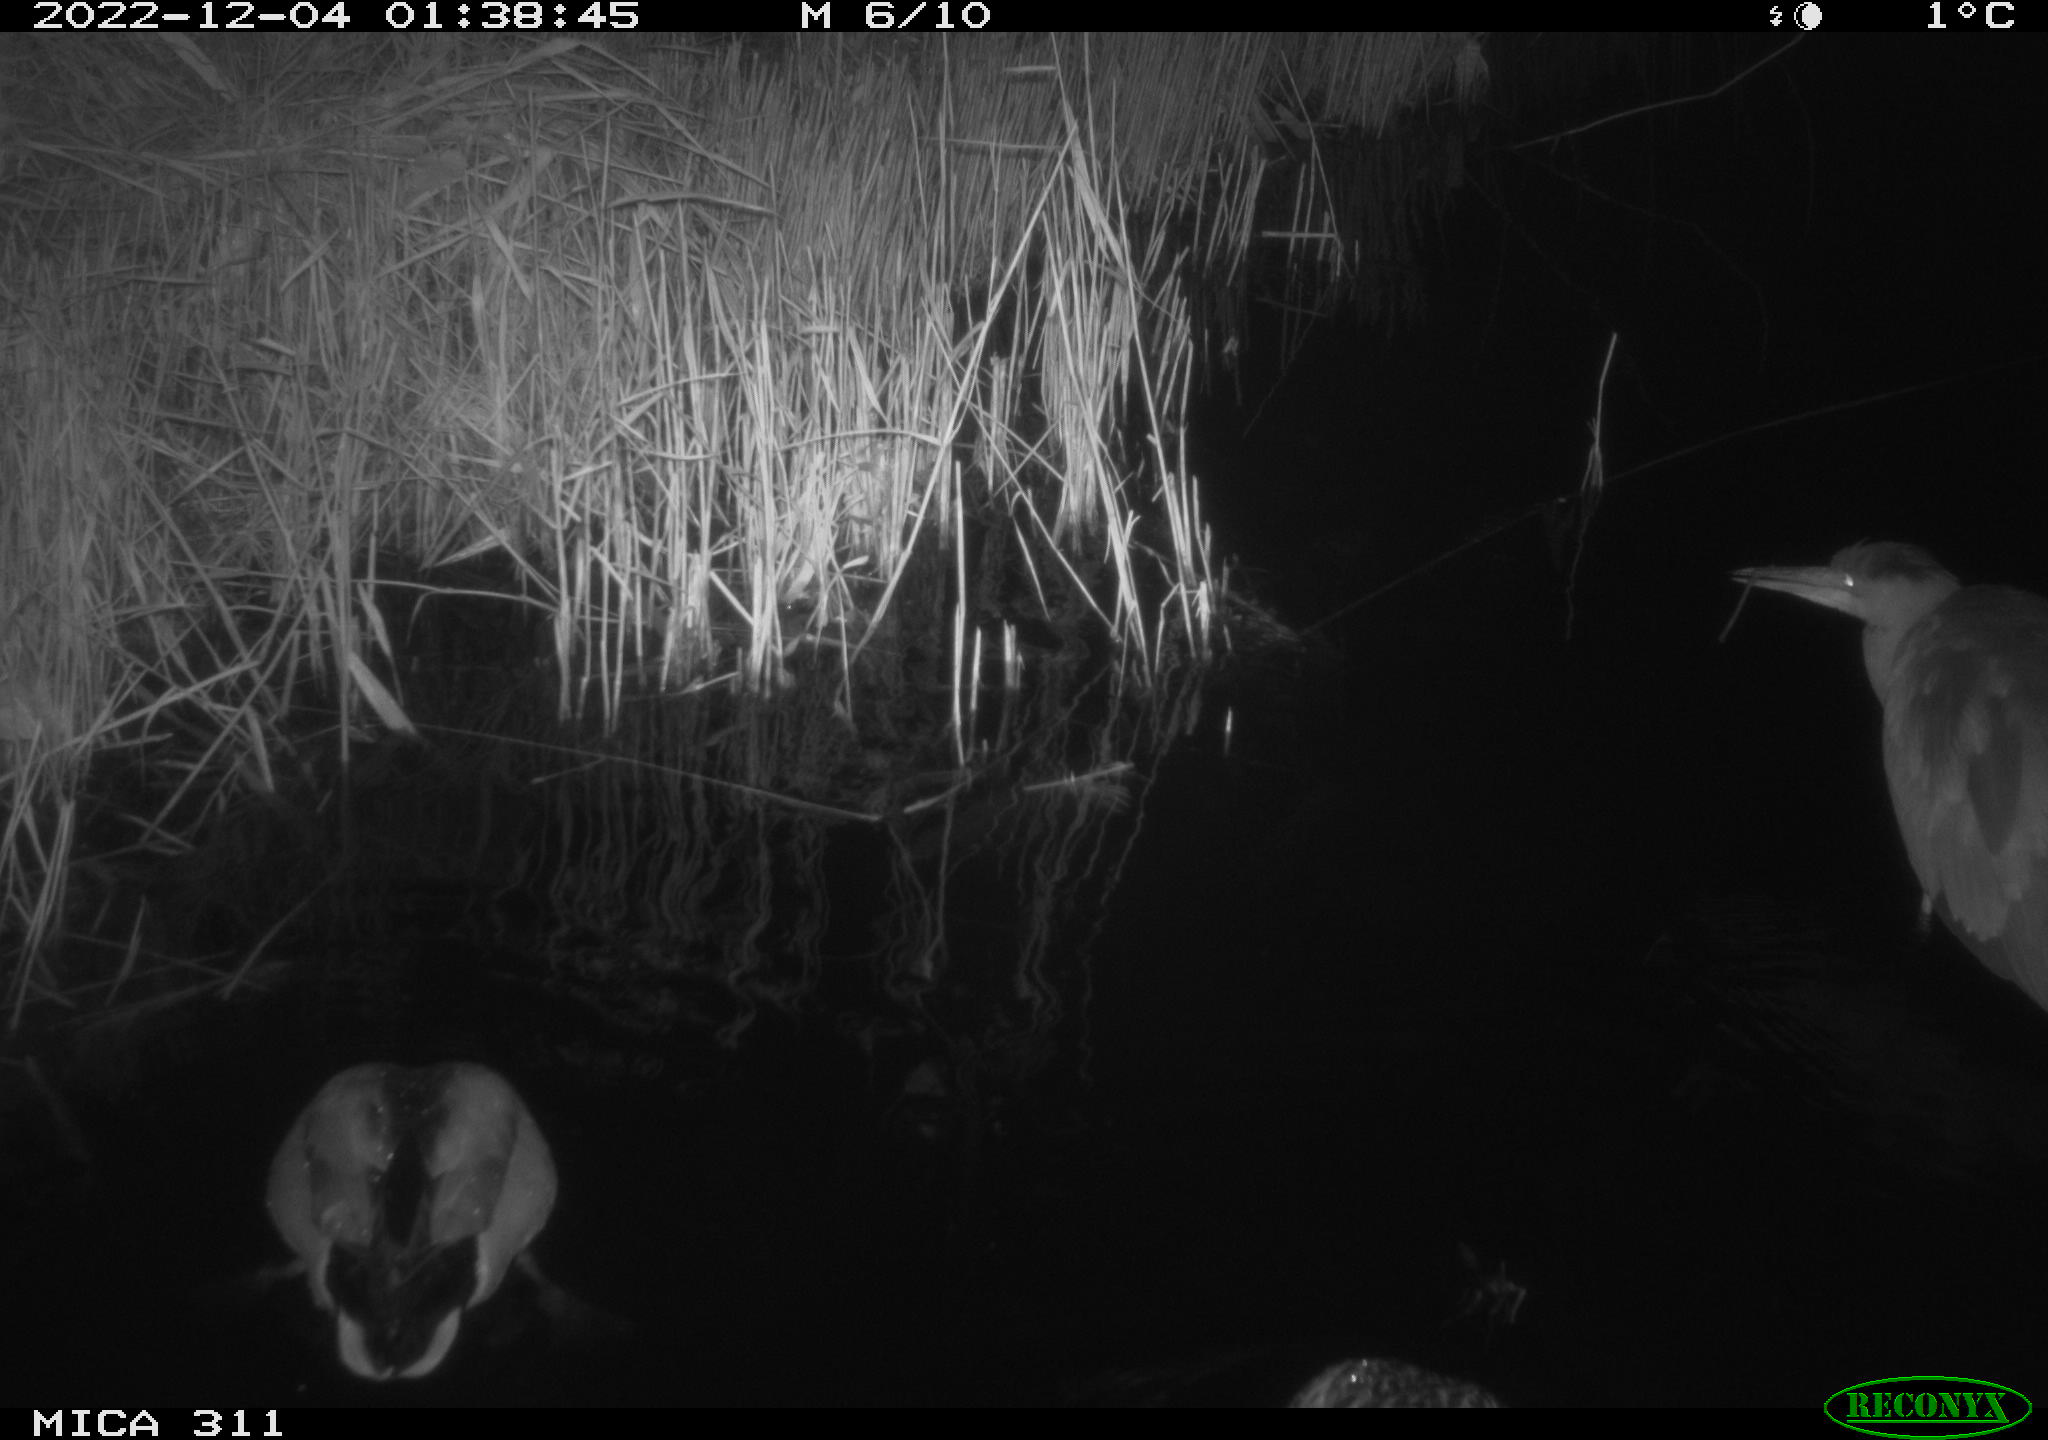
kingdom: Animalia
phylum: Chordata
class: Aves
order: Anseriformes
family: Anatidae
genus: Anas
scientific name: Anas
